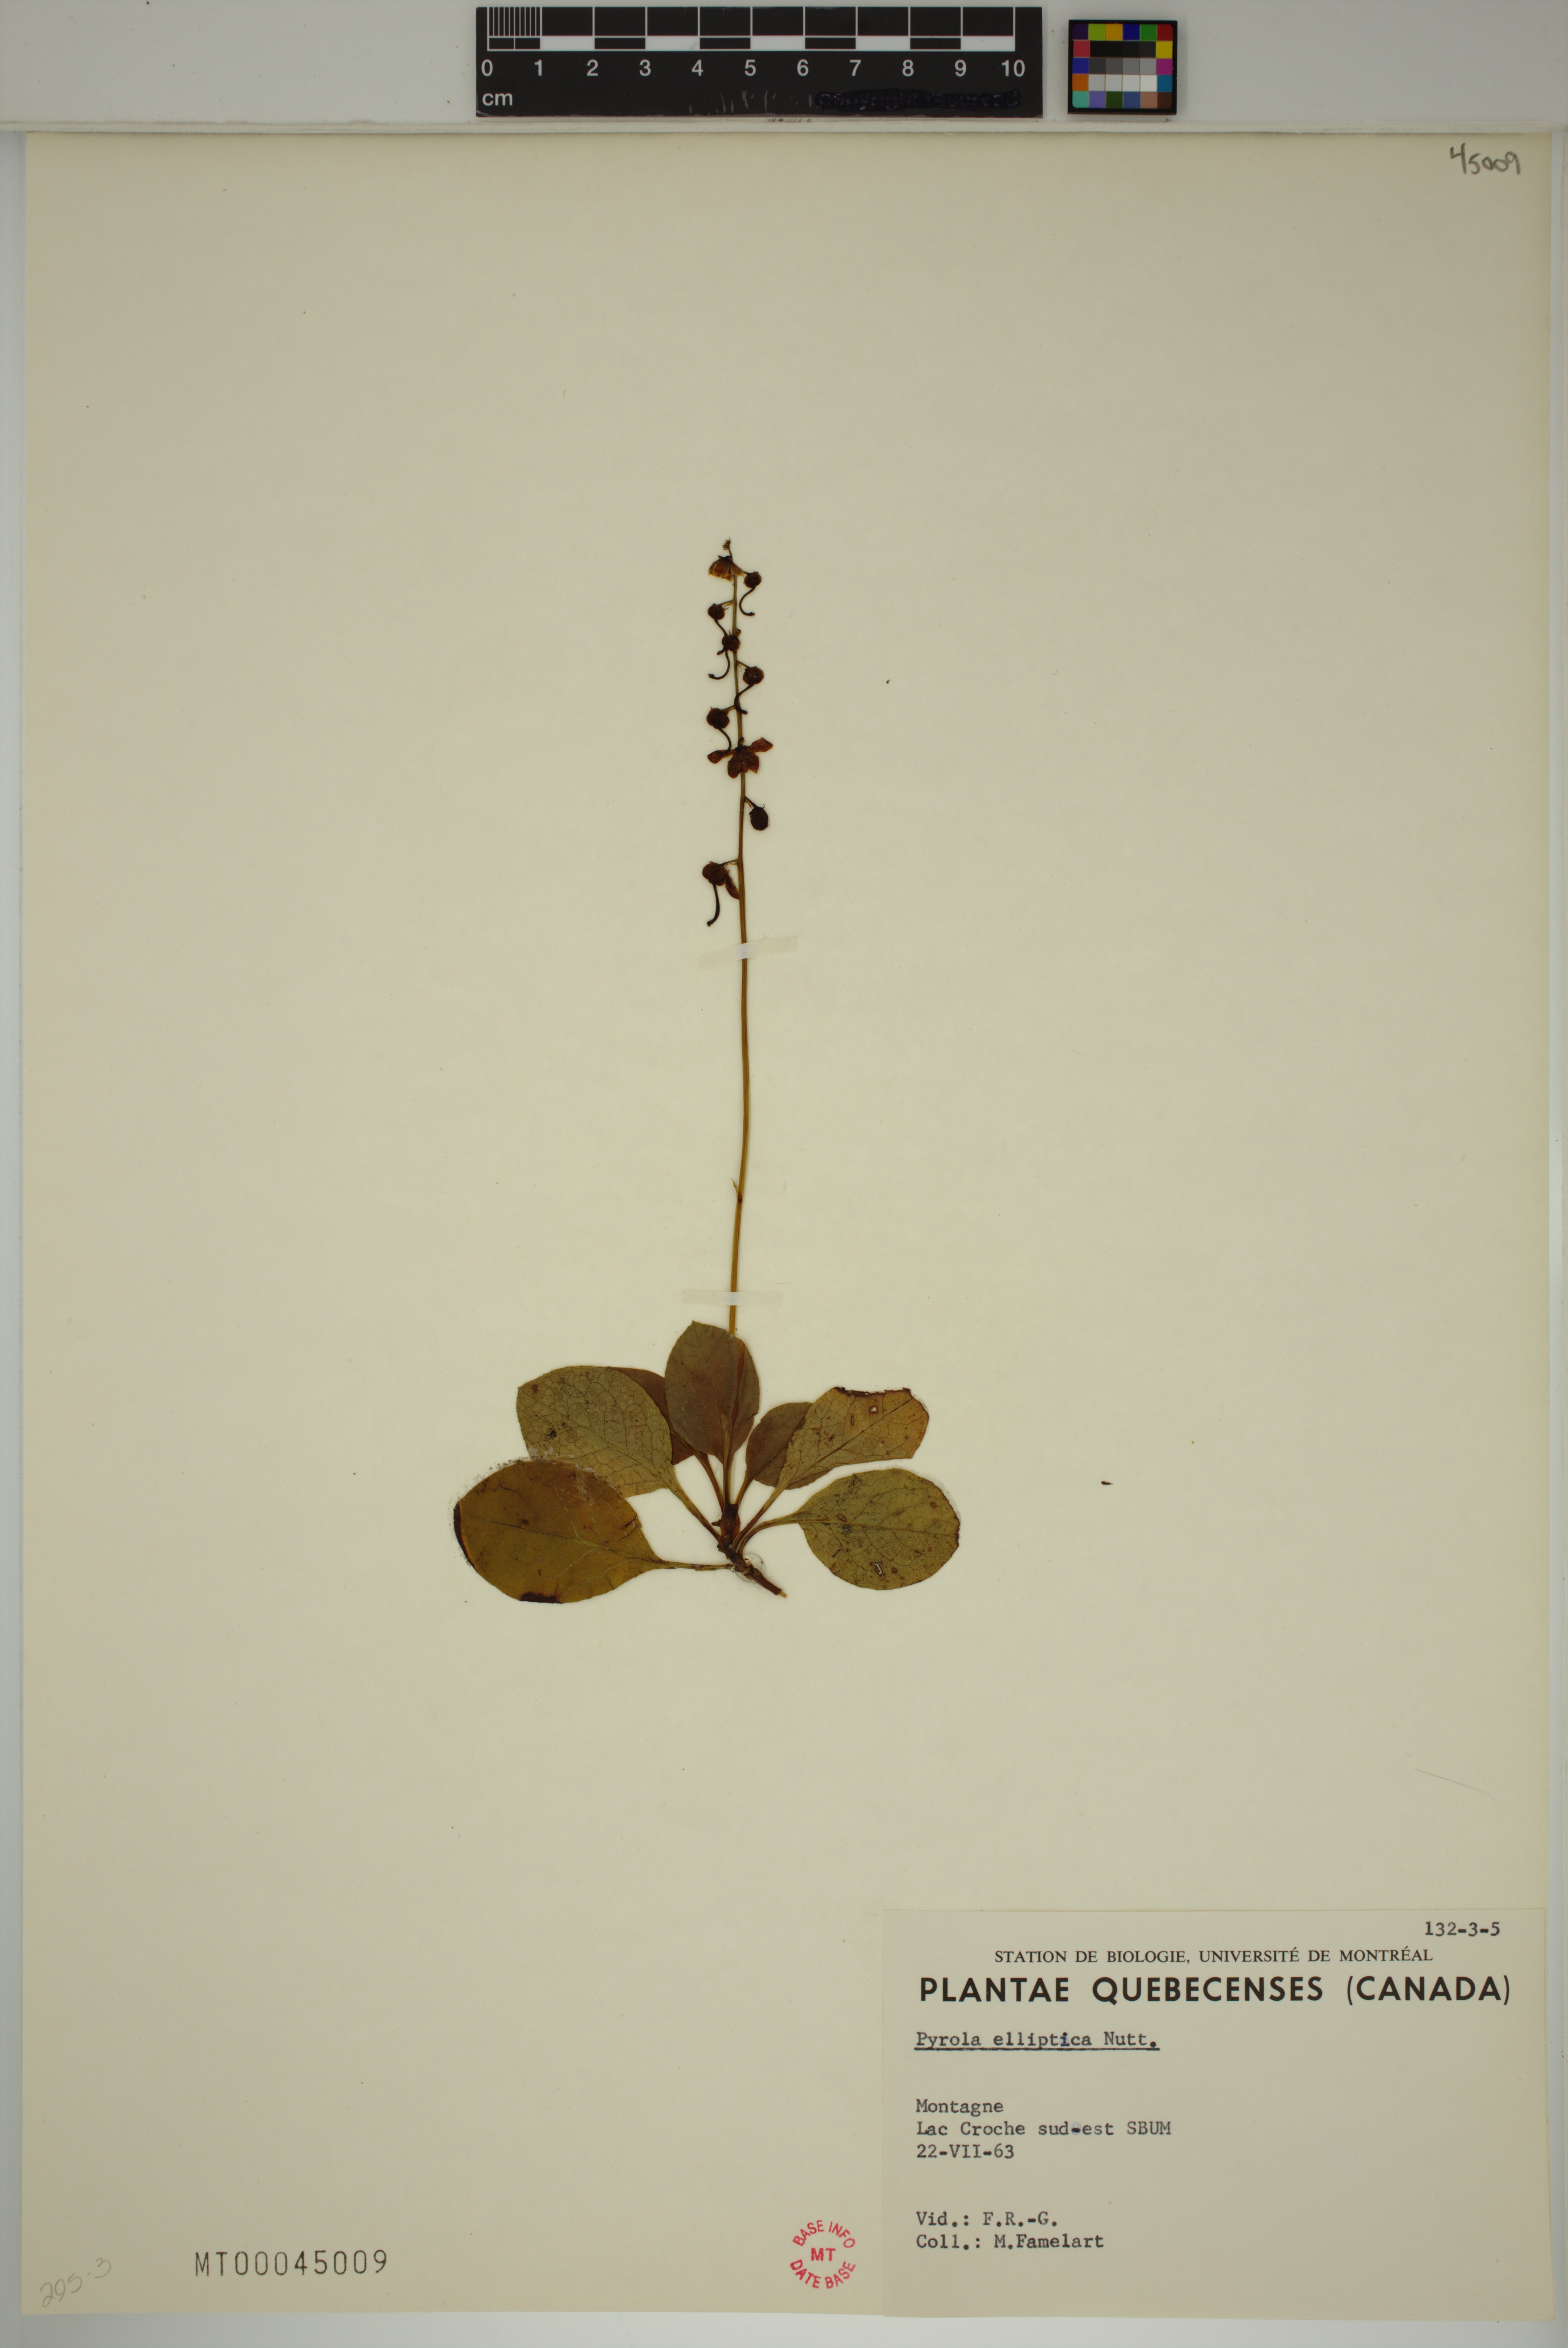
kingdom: Plantae
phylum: Tracheophyta
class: Magnoliopsida
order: Ericales
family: Ericaceae
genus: Pyrola
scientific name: Pyrola elliptica
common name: Shinleaf
